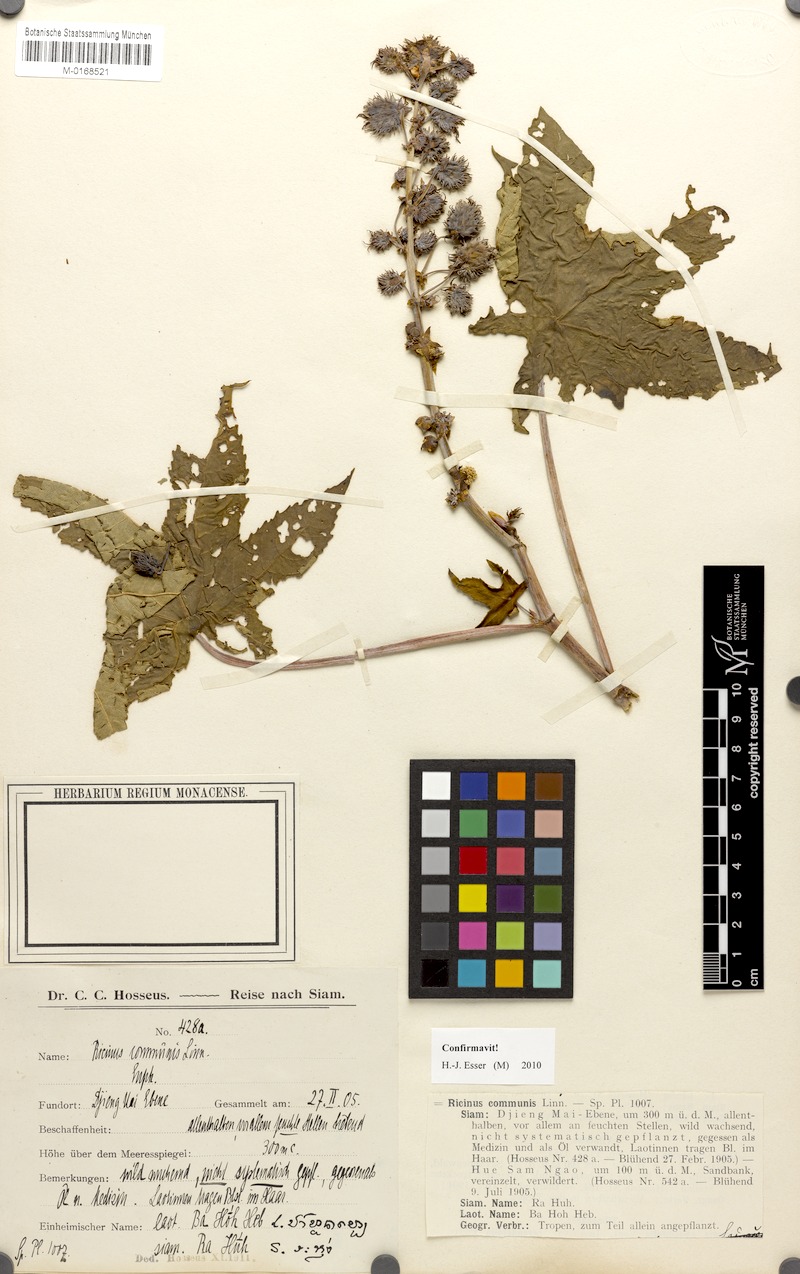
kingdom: Plantae
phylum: Tracheophyta
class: Magnoliopsida
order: Malpighiales
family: Euphorbiaceae
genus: Ricinus
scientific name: Ricinus communis
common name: Castor-oil-plant
